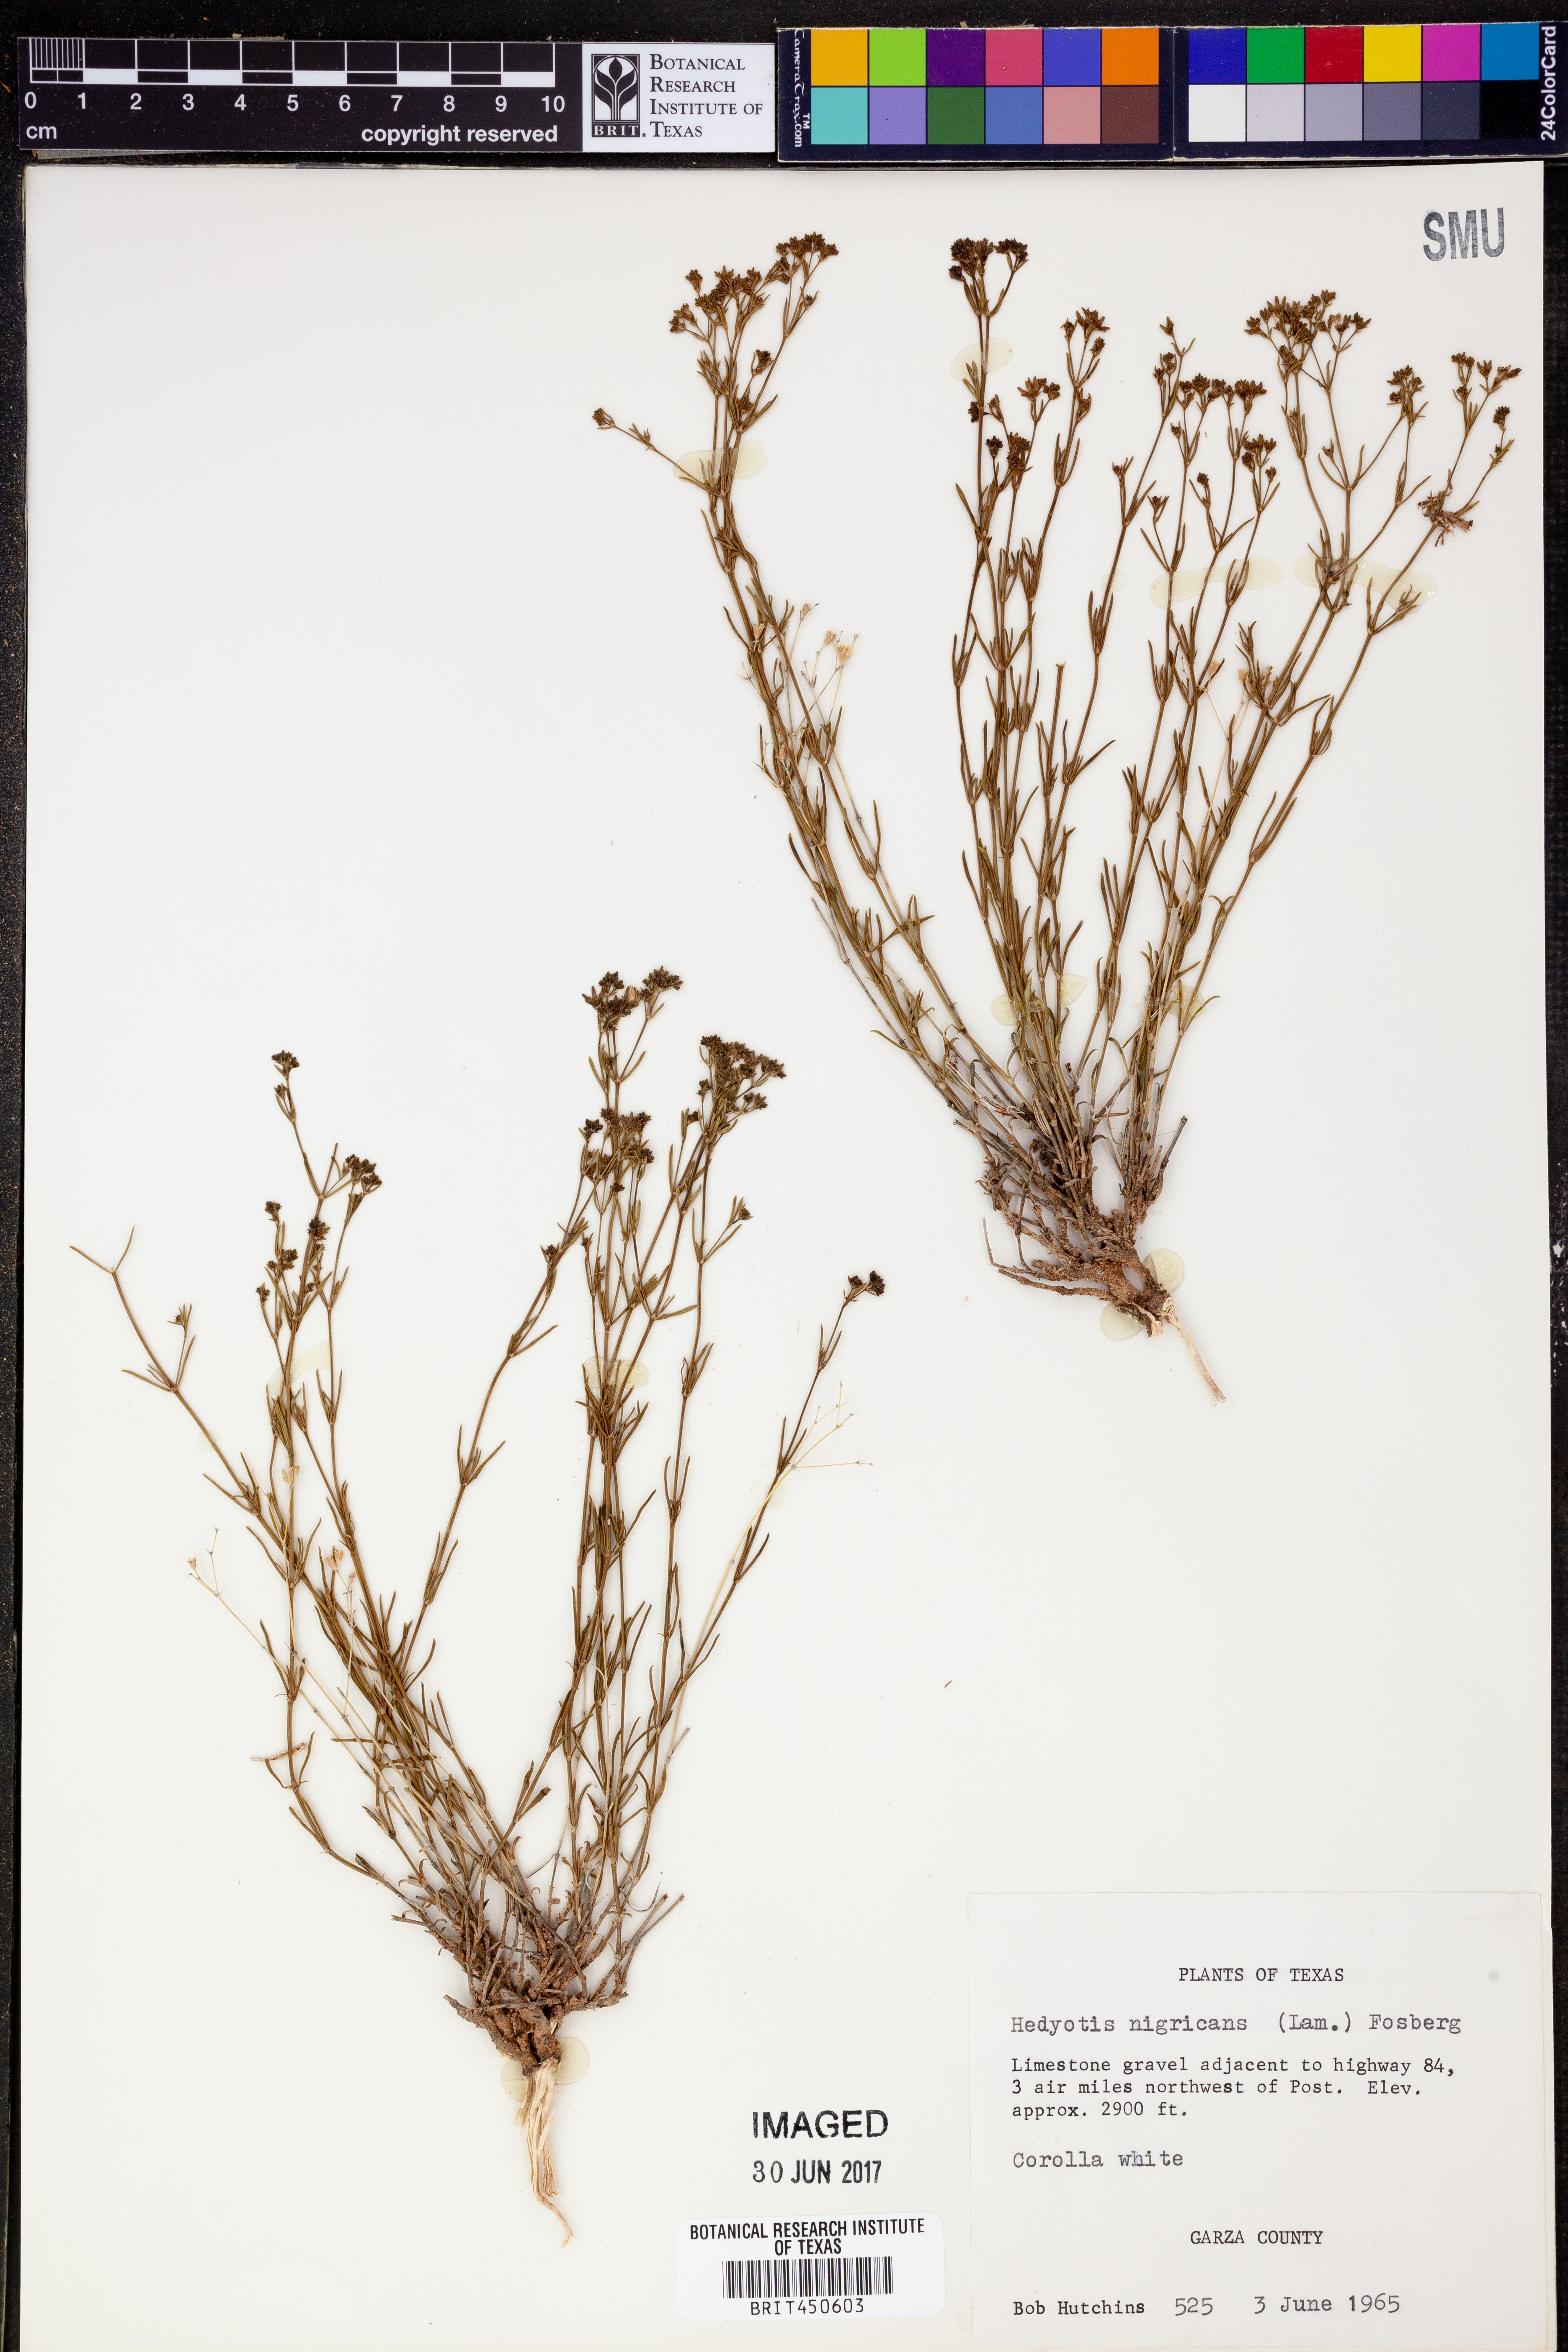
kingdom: Plantae
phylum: Tracheophyta
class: Magnoliopsida
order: Gentianales
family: Rubiaceae
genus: Stenaria
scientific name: Stenaria nigricans
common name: Diamondflowers
